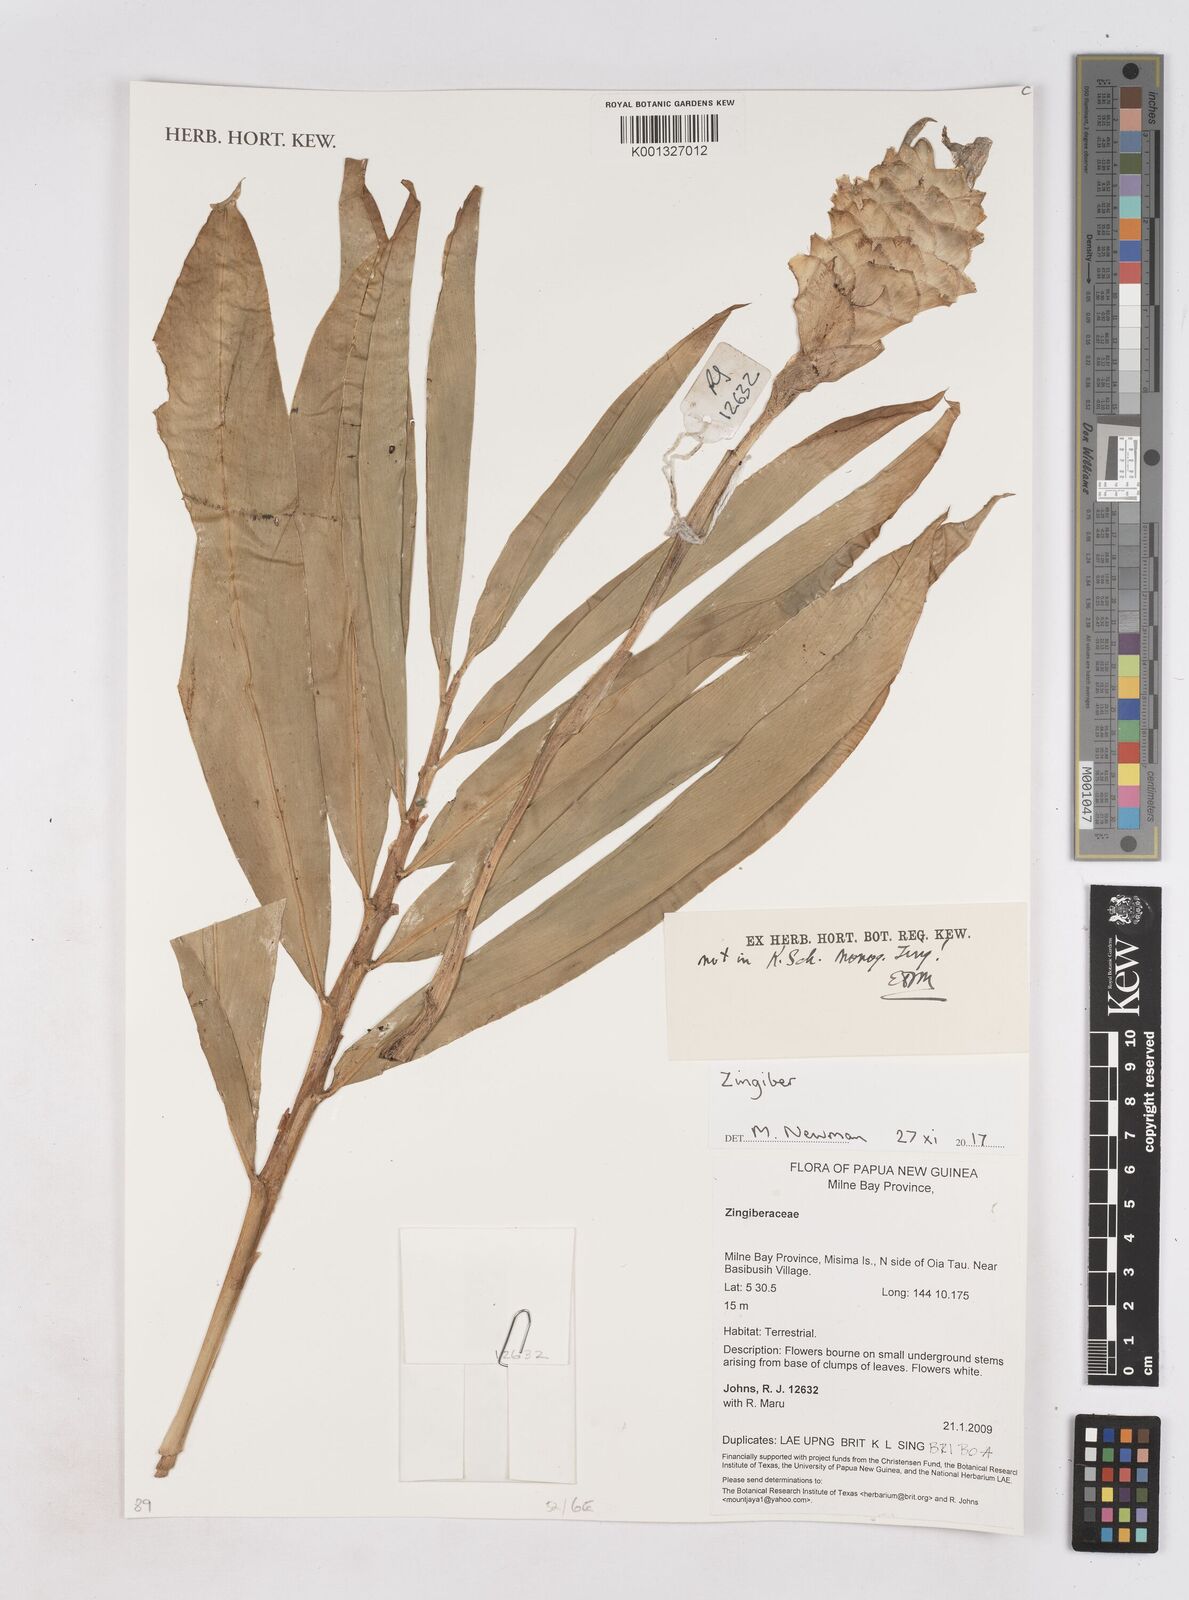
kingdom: Plantae
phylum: Tracheophyta
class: Liliopsida
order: Zingiberales
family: Zingiberaceae
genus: Zingiber
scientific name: Zingiber
